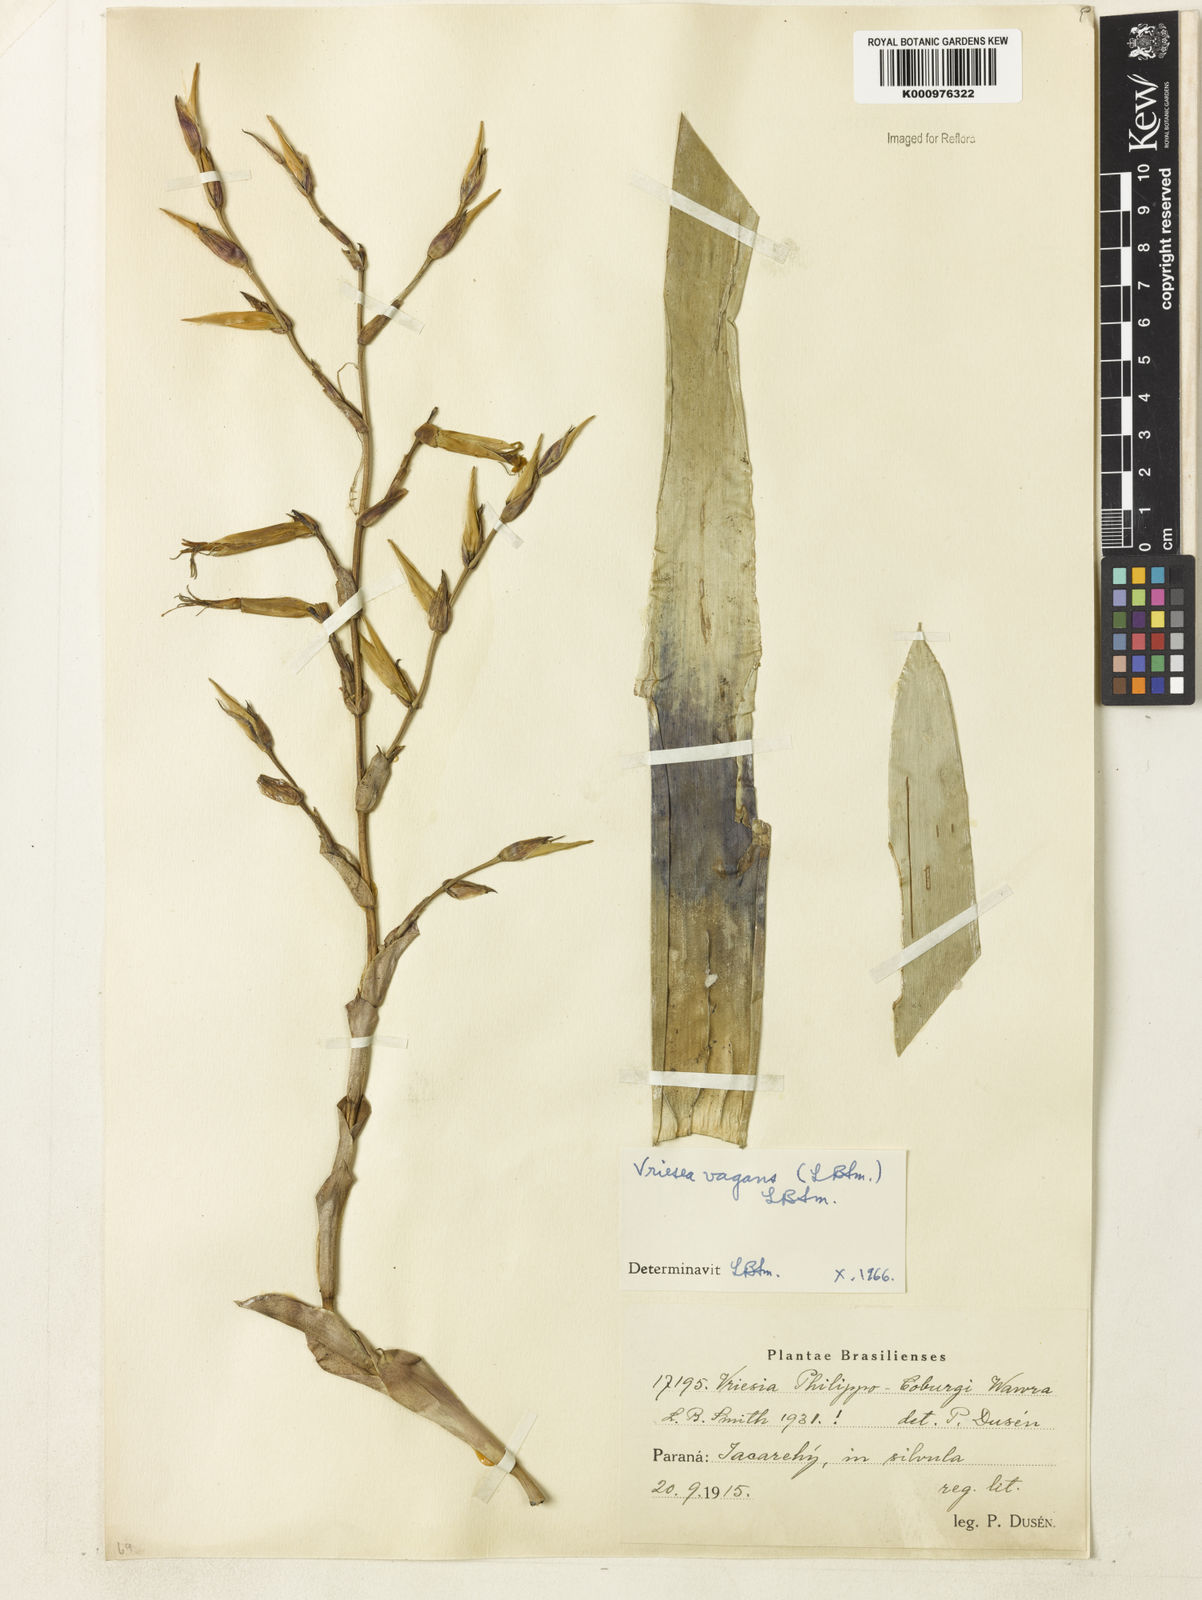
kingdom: Plantae
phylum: Tracheophyta
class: Liliopsida
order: Poales
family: Bromeliaceae
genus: Vriesea
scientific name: Vriesea vagans
